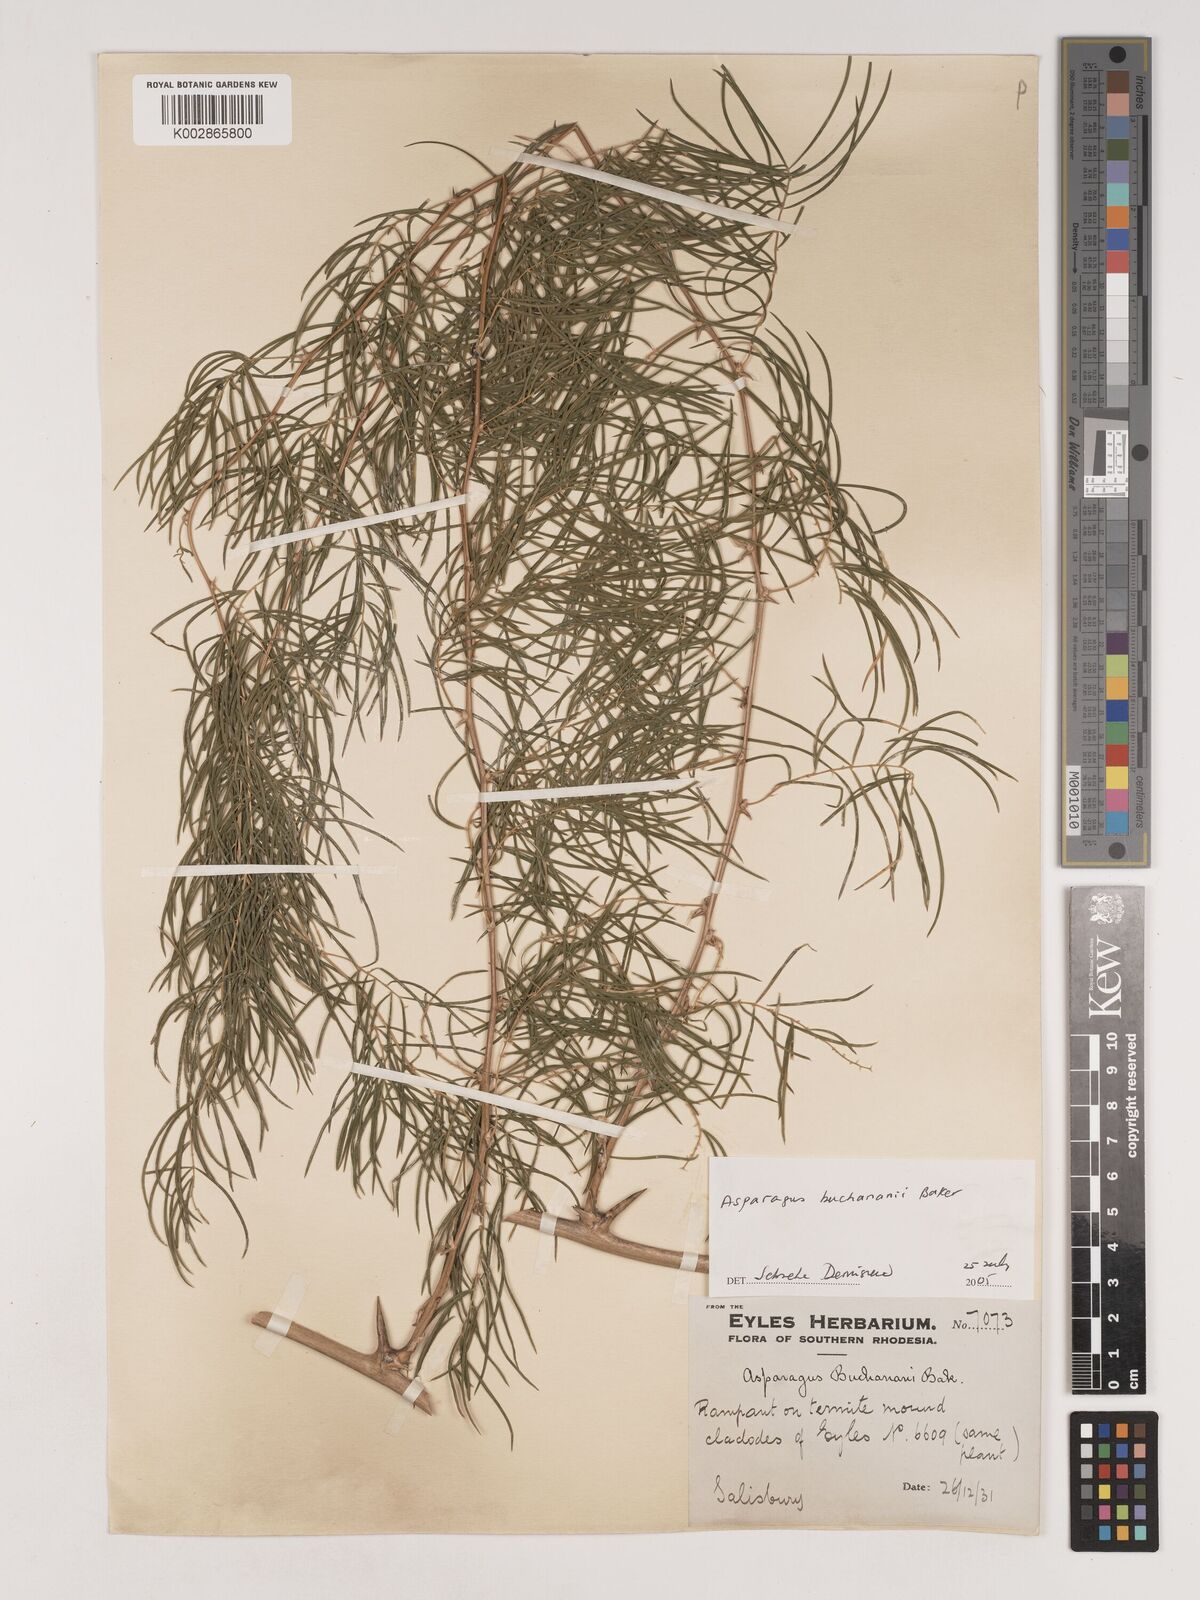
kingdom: Plantae
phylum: Tracheophyta
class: Liliopsida
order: Asparagales
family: Asparagaceae
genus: Asparagus
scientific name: Asparagus buchananii
